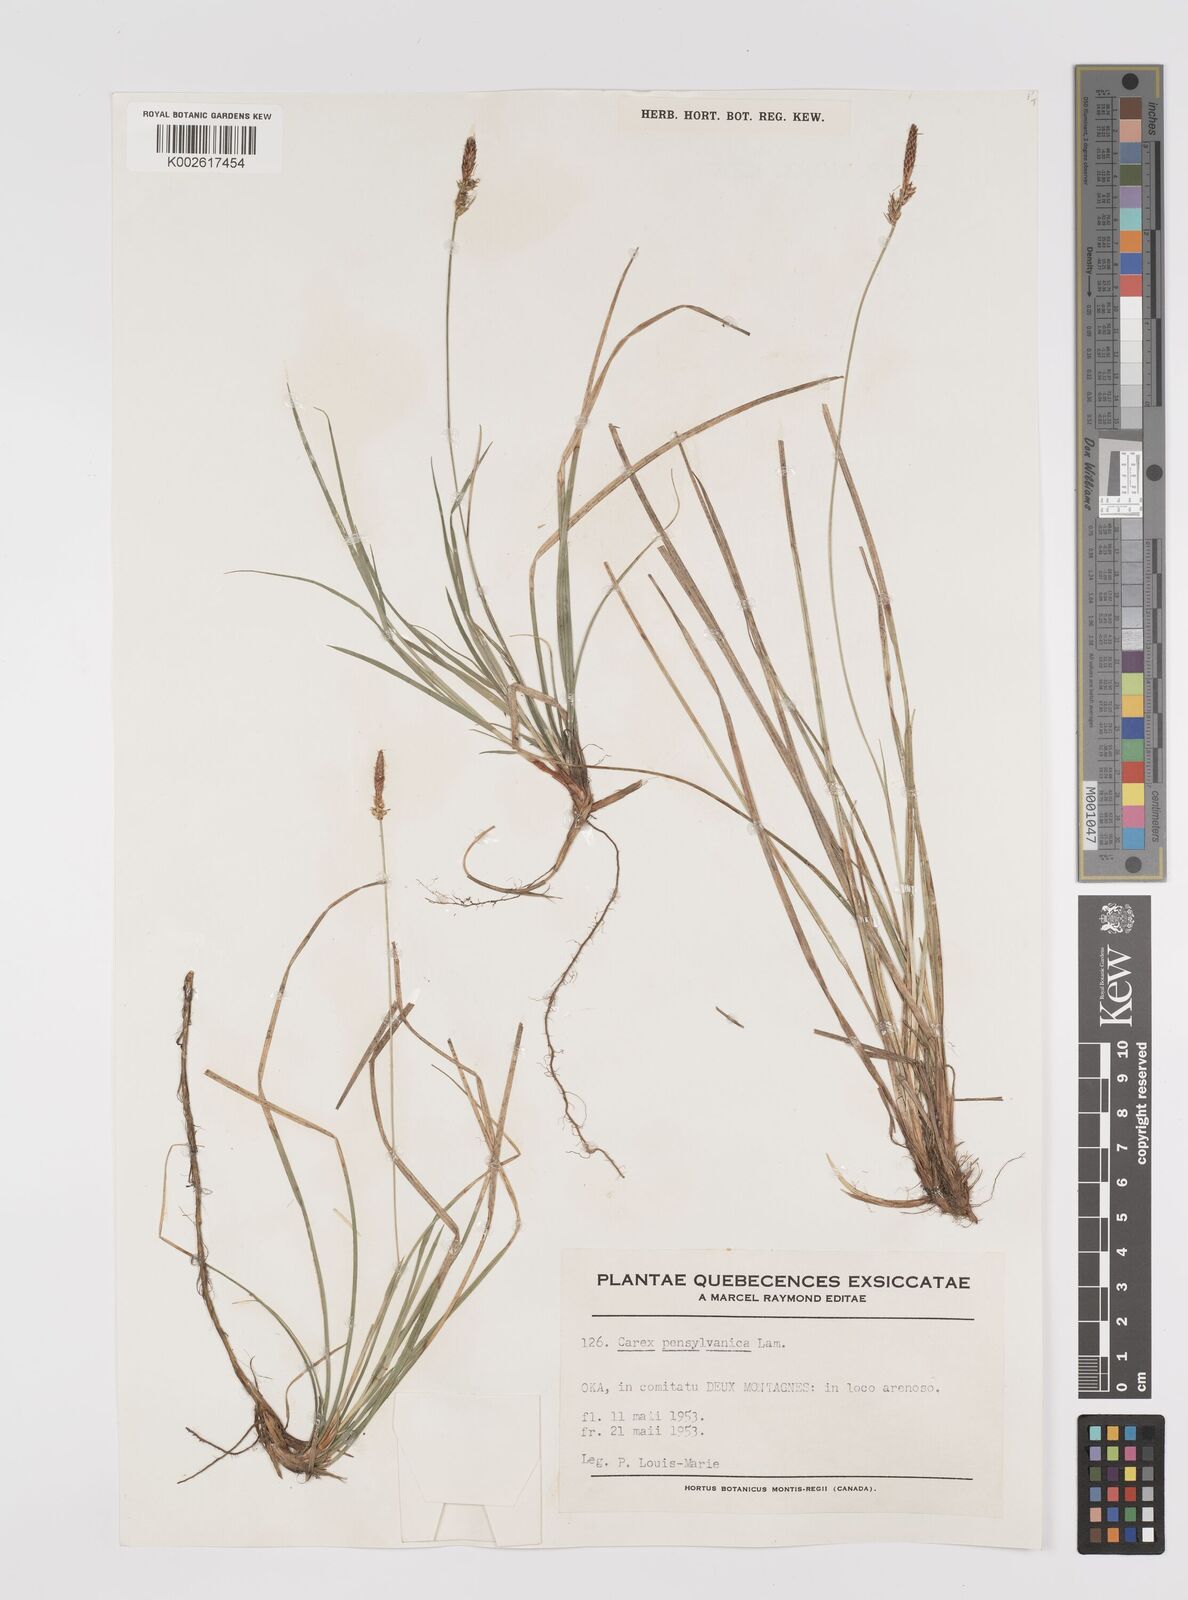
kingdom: Plantae
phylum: Tracheophyta
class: Liliopsida
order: Poales
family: Cyperaceae
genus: Carex
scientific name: Carex pensylvanica
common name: Common oak sedge
